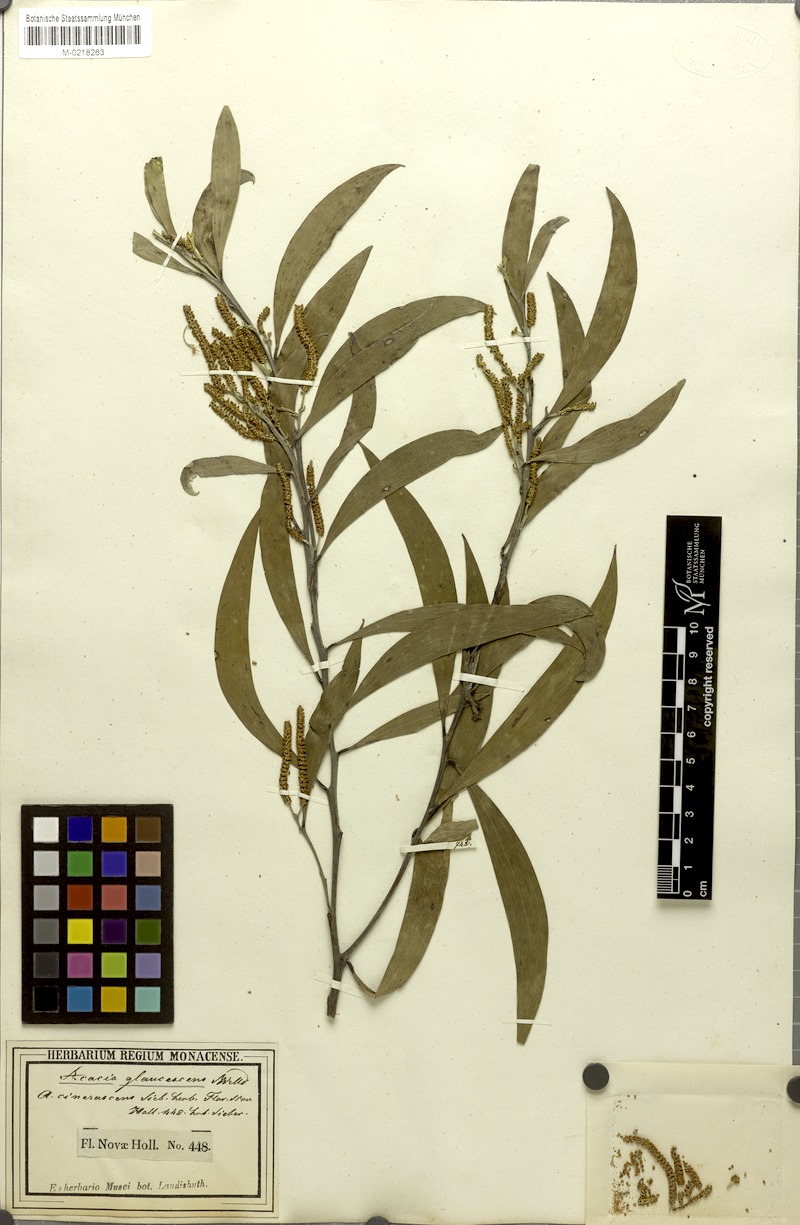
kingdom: Plantae
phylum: Tracheophyta
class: Magnoliopsida
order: Fabales
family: Fabaceae
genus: Acacia
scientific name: Acacia binervia
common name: Coast myall
